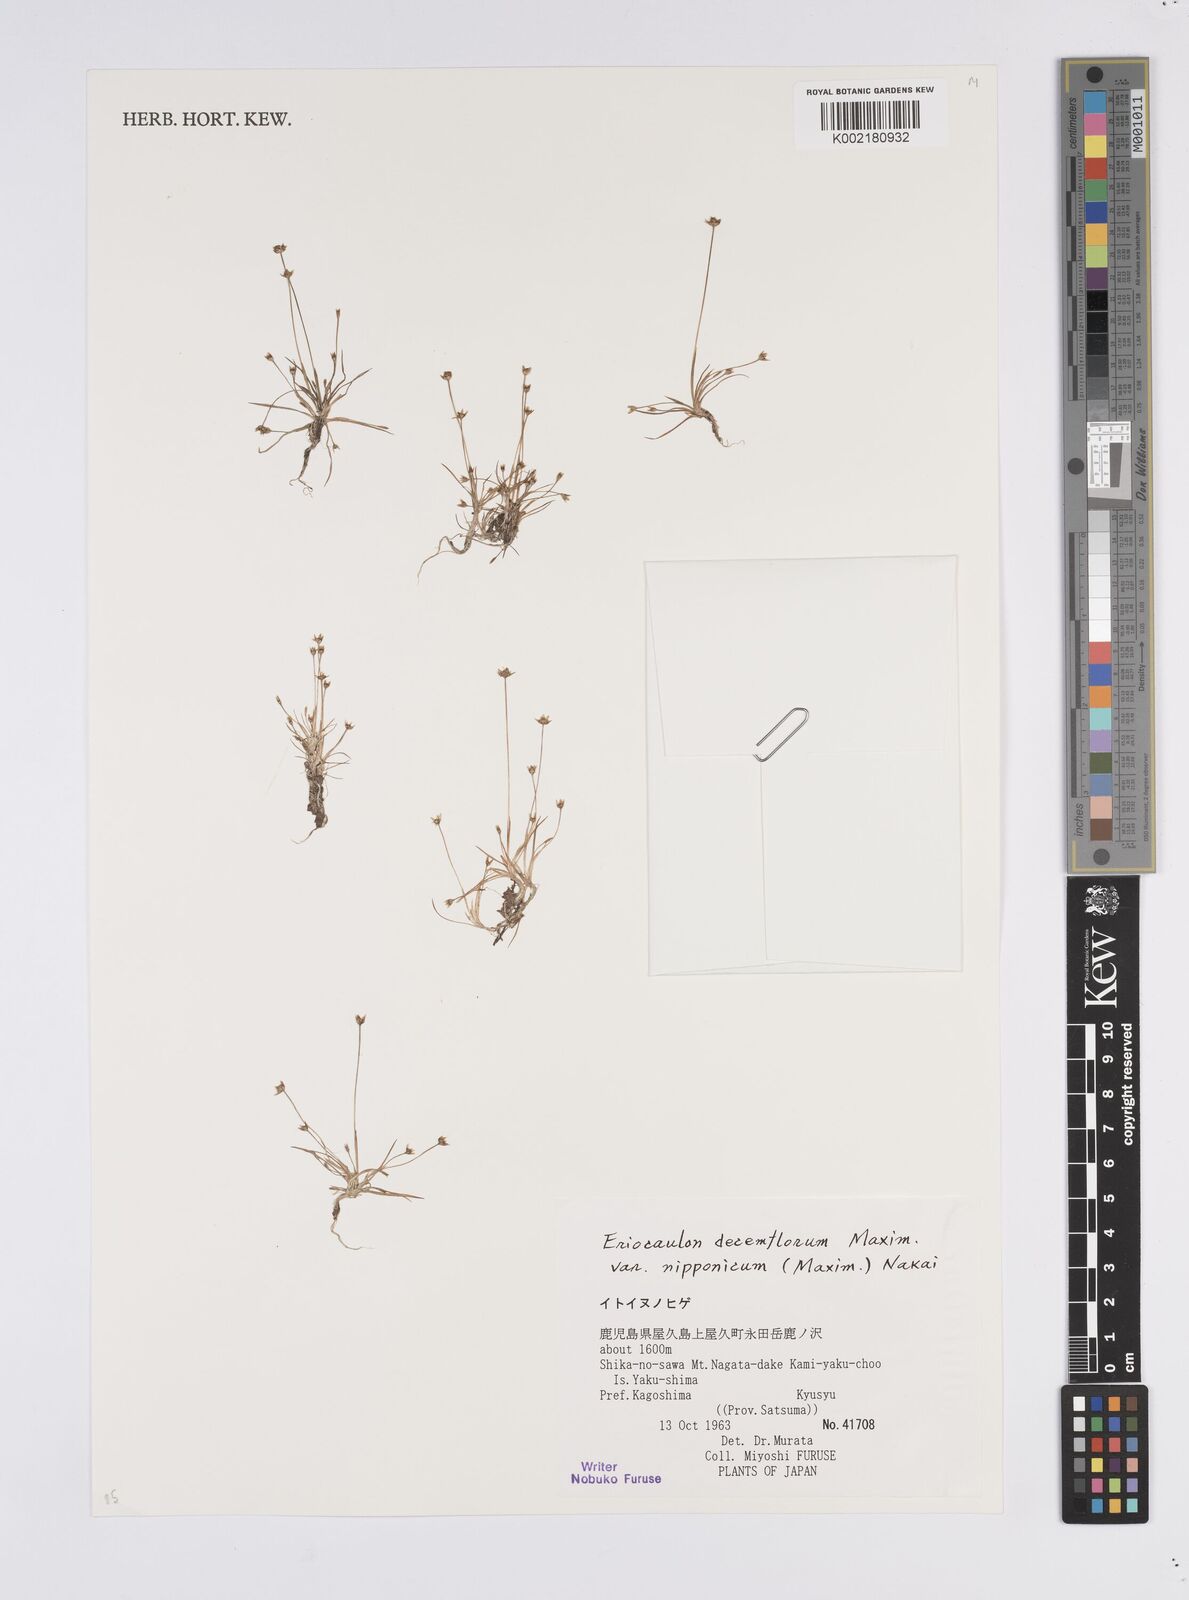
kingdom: Plantae
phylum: Tracheophyta
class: Liliopsida
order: Poales
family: Eriocaulaceae
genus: Eriocaulon
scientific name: Eriocaulon decemflorum
